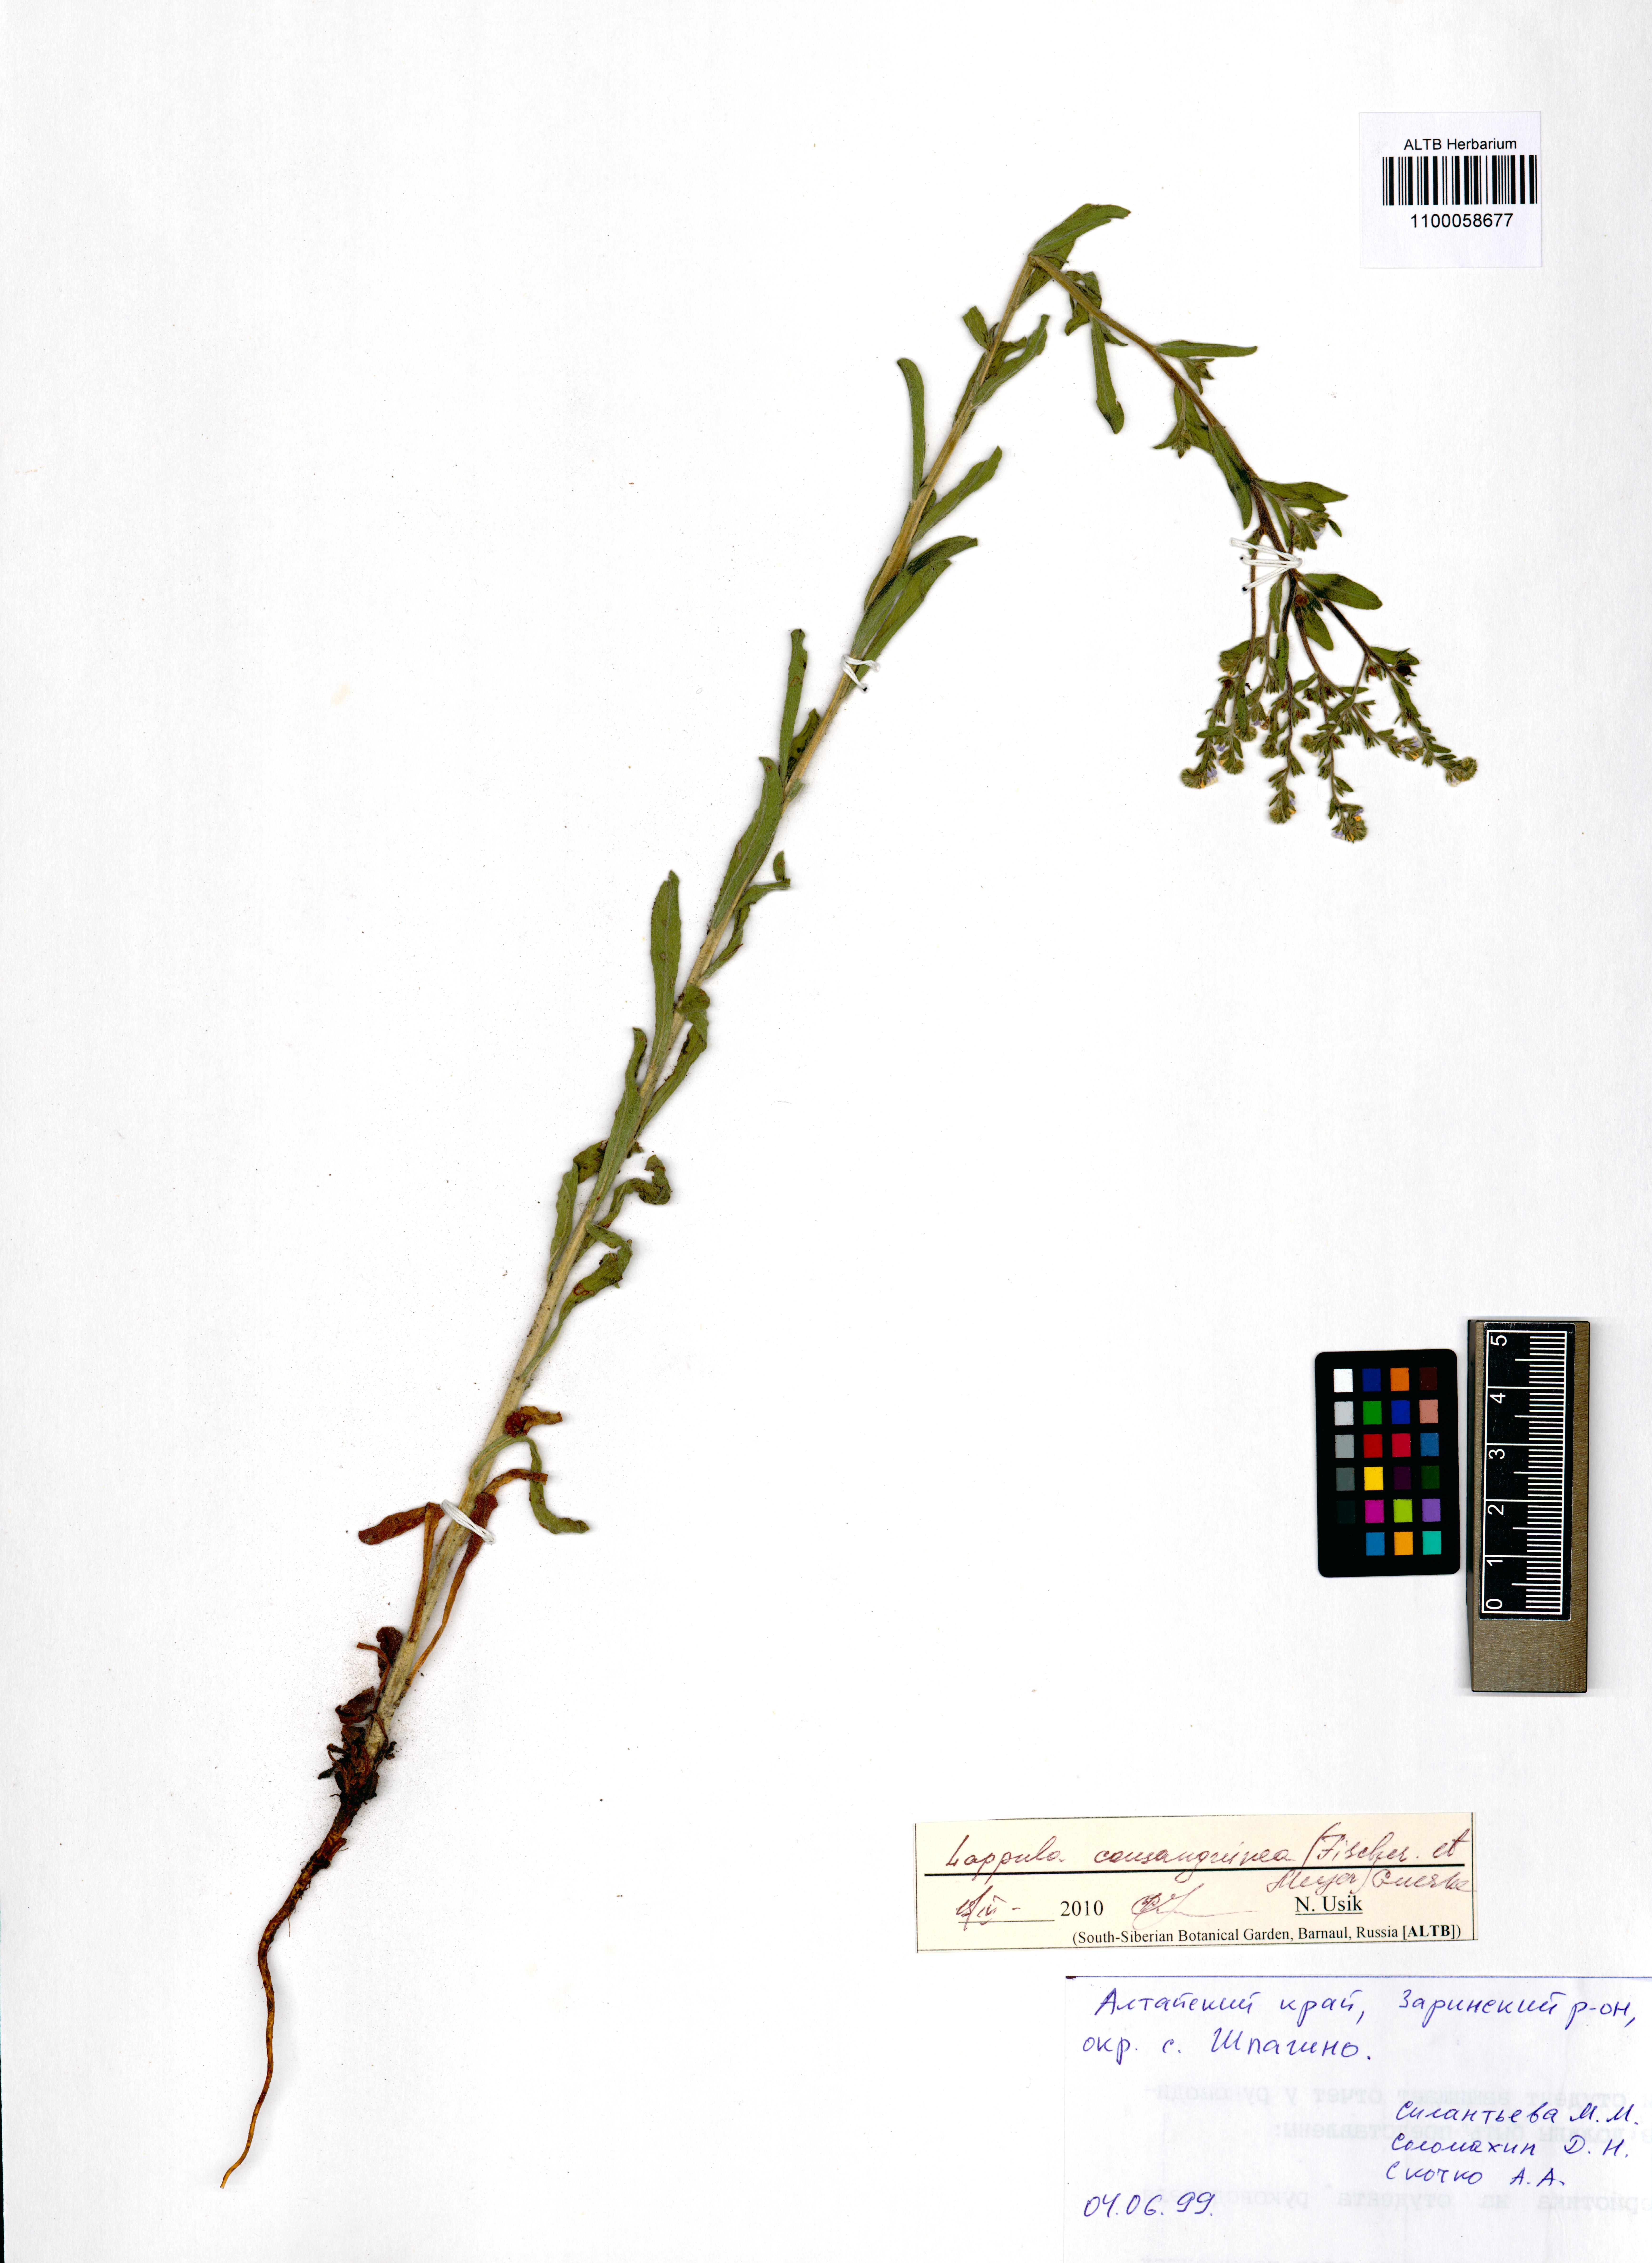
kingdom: Plantae
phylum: Tracheophyta
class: Magnoliopsida
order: Boraginales
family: Boraginaceae
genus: Lappula
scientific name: Lappula squarrosa
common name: European stickseed
